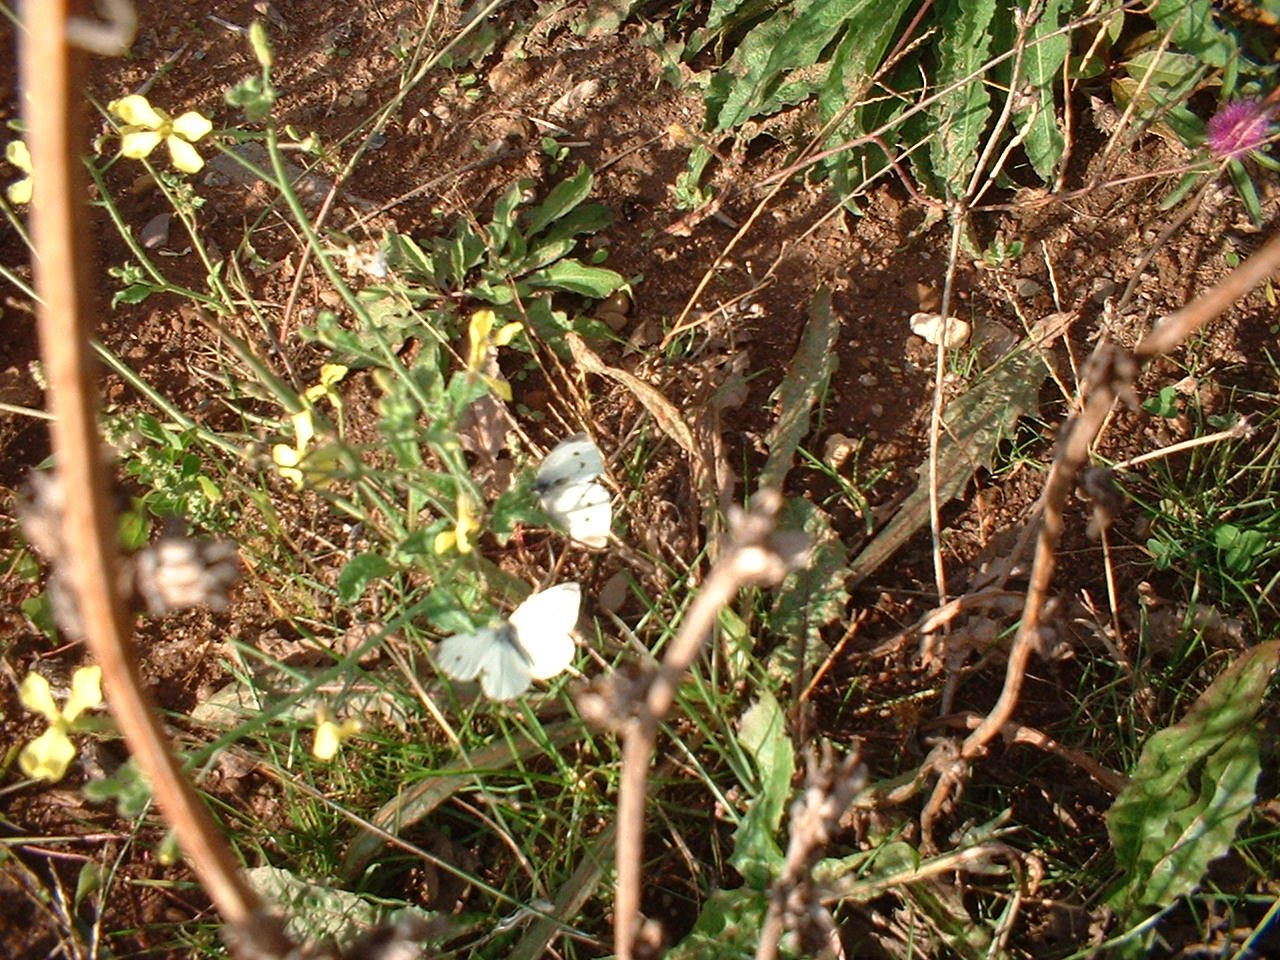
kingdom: Animalia
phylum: Arthropoda
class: Insecta
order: Lepidoptera
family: Pieridae
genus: Pieris
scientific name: Pieris rapae
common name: Cabbage White
